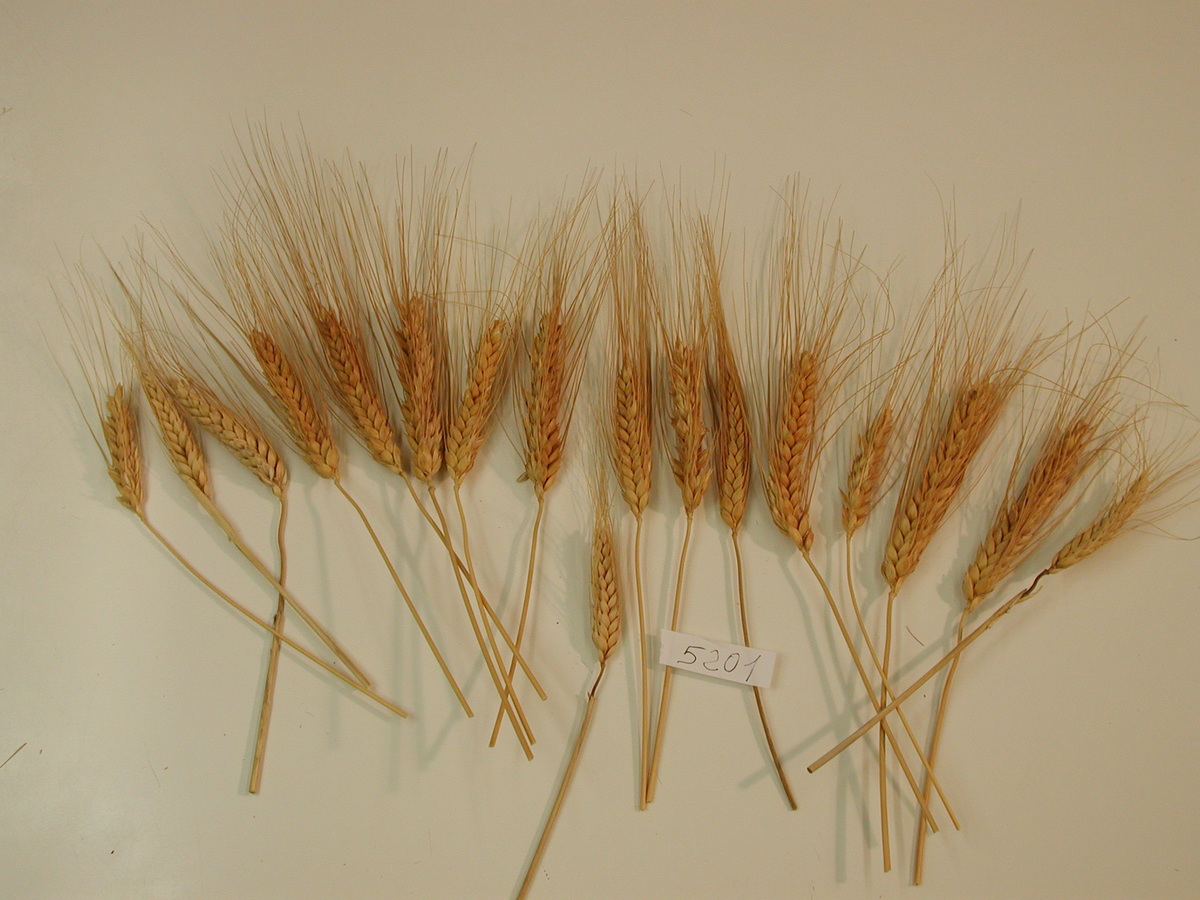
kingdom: Plantae
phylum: Tracheophyta
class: Liliopsida
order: Poales
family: Poaceae
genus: Triticum
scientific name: Triticum turgidum
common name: Wheat
